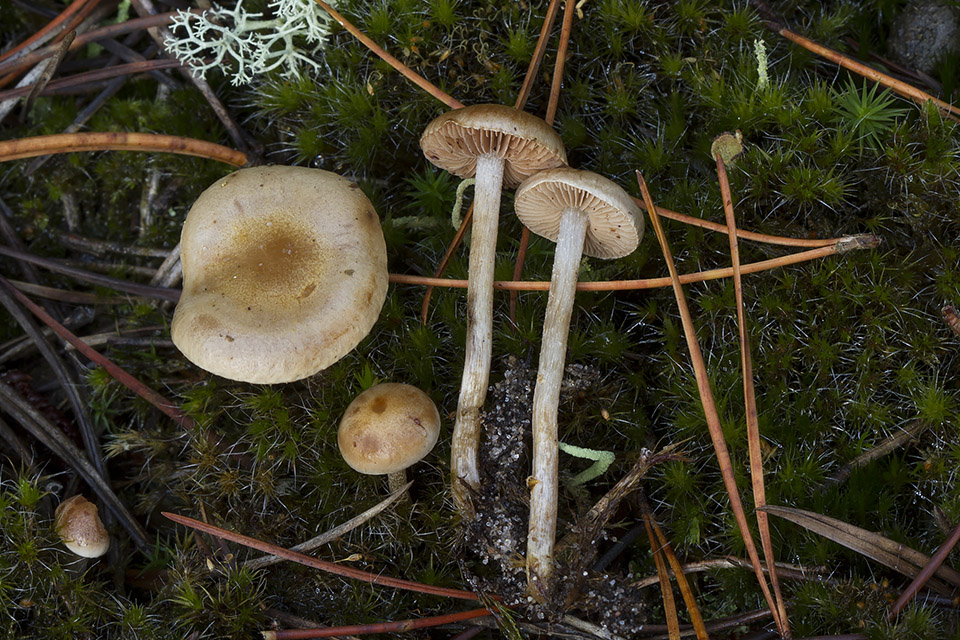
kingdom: Fungi
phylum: Basidiomycota
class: Agaricomycetes
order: Agaricales
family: Hymenogastraceae
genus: Hebeloma
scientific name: Hebeloma cylindrosporum
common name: fyrre-tåreblad
